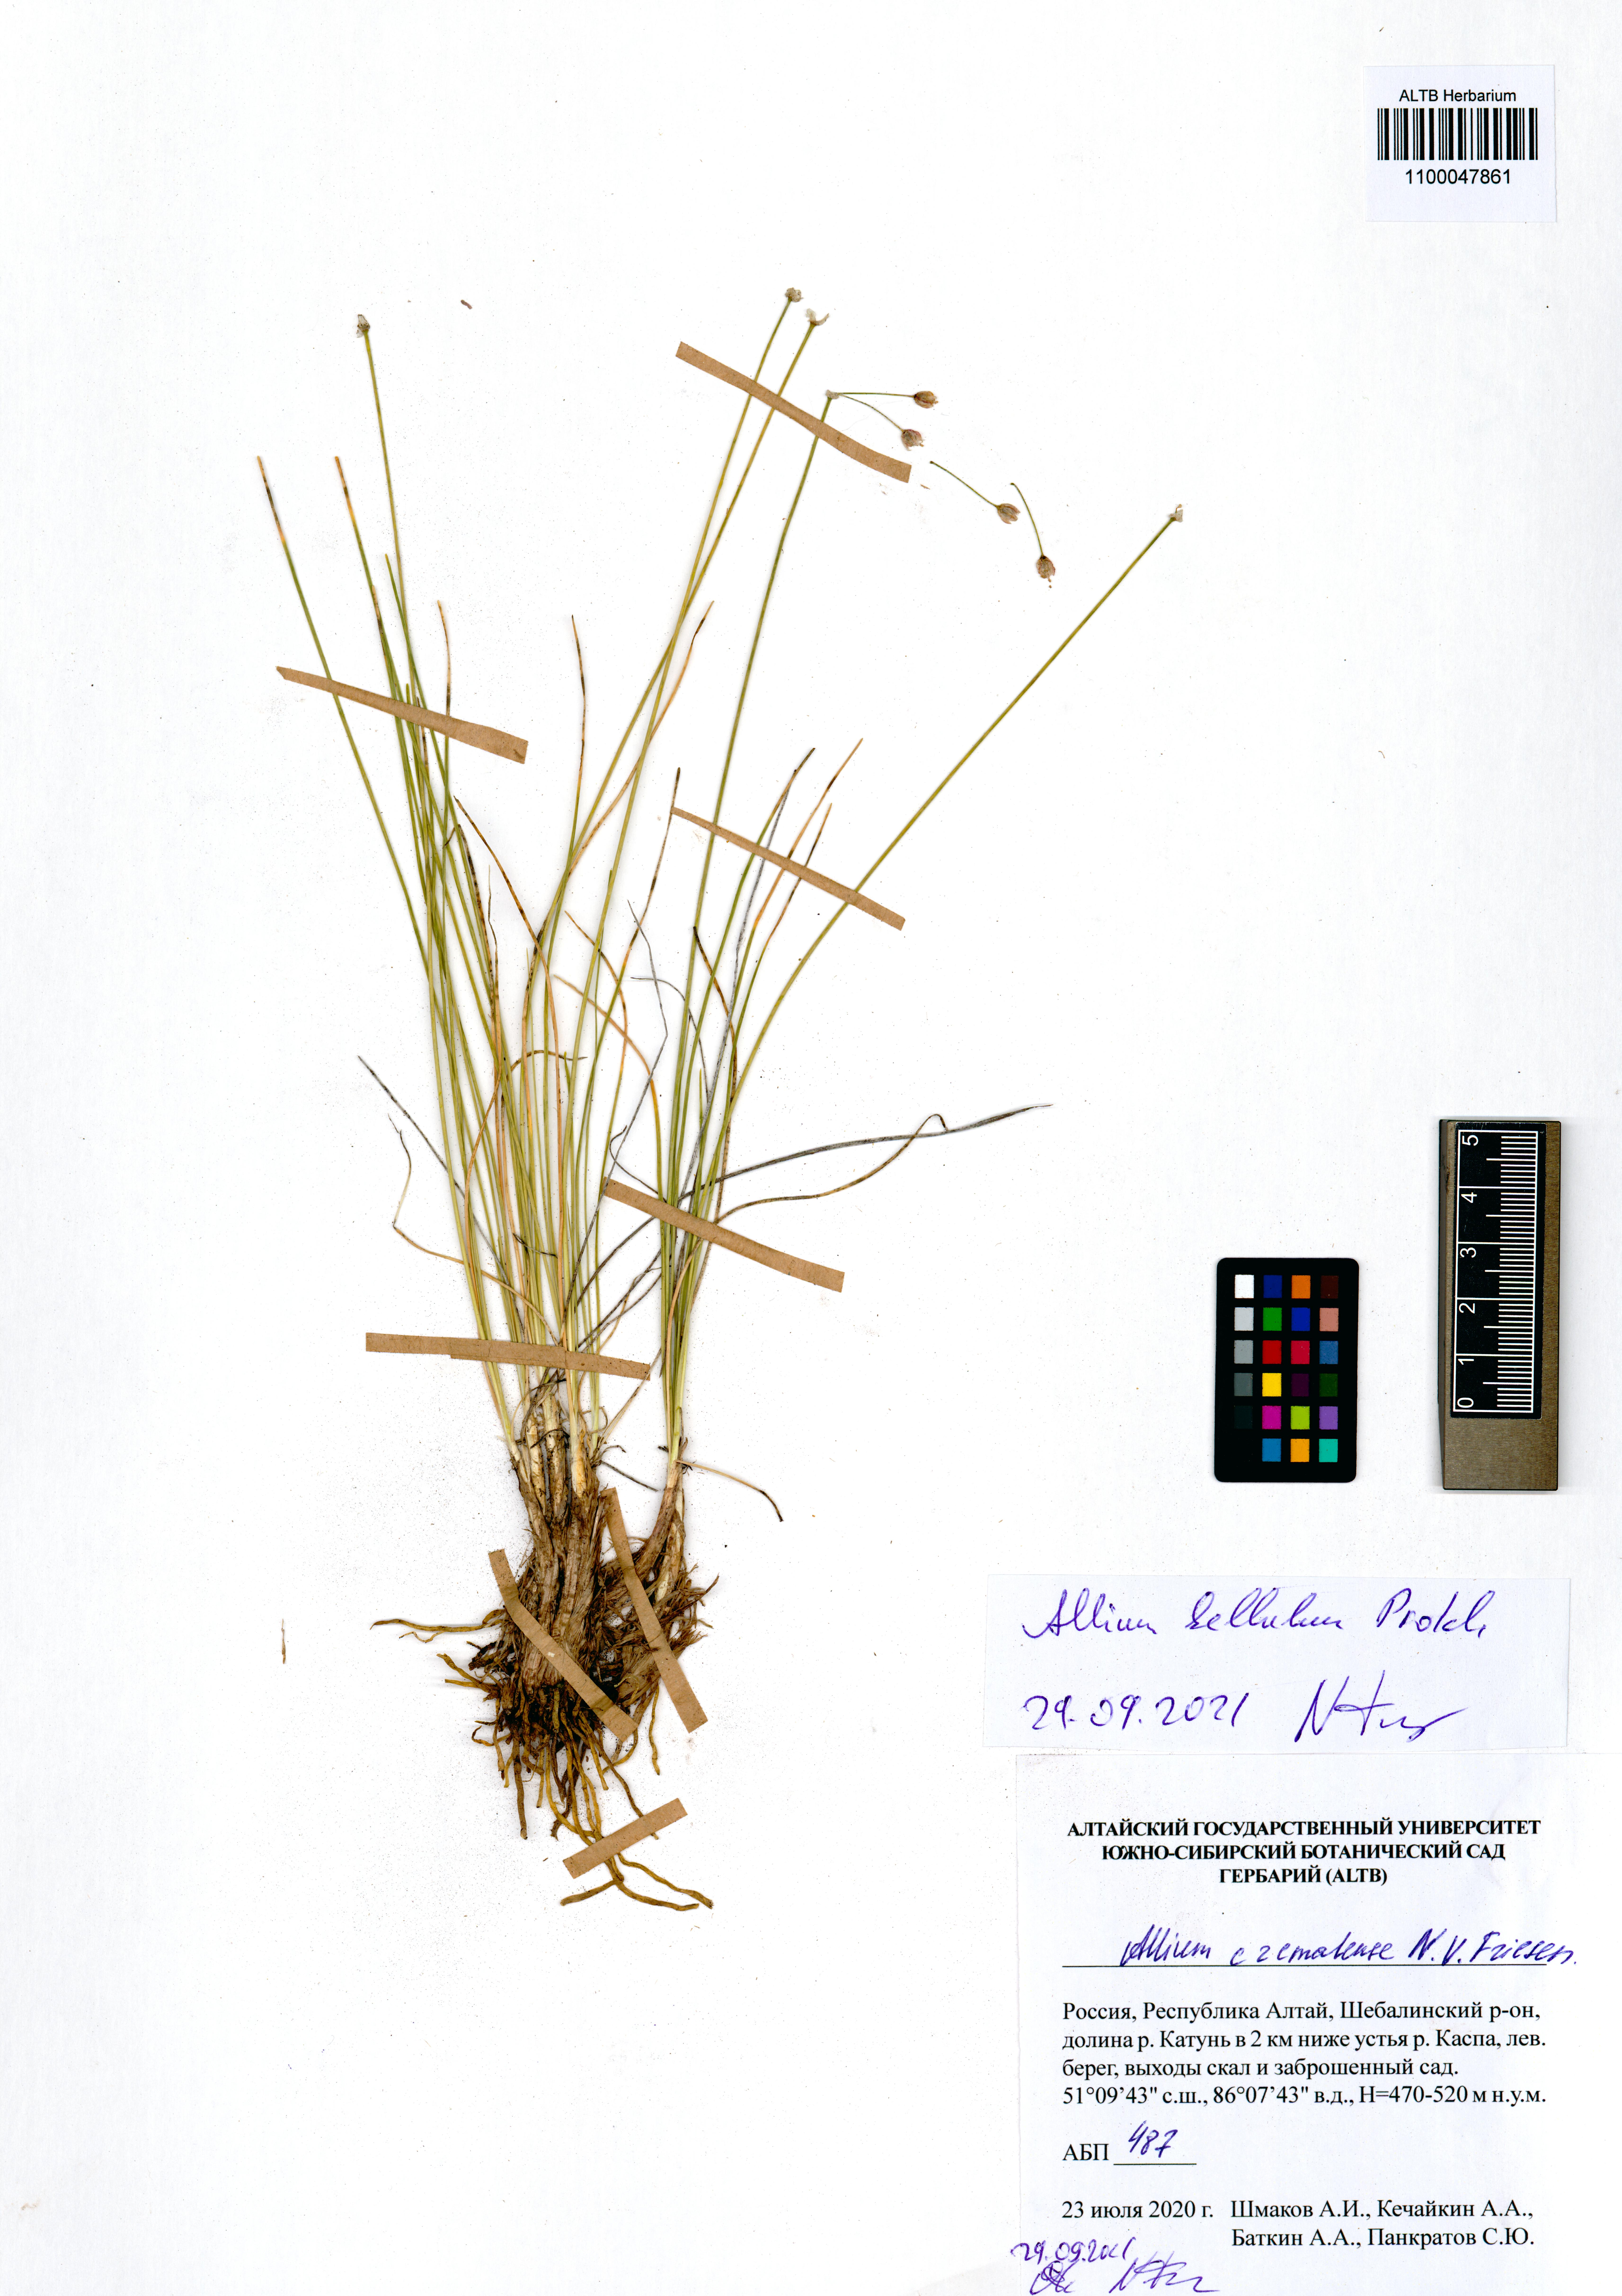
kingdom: Plantae
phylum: Tracheophyta
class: Liliopsida
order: Asparagales
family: Amaryllidaceae
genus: Allium
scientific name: Allium bellulum
